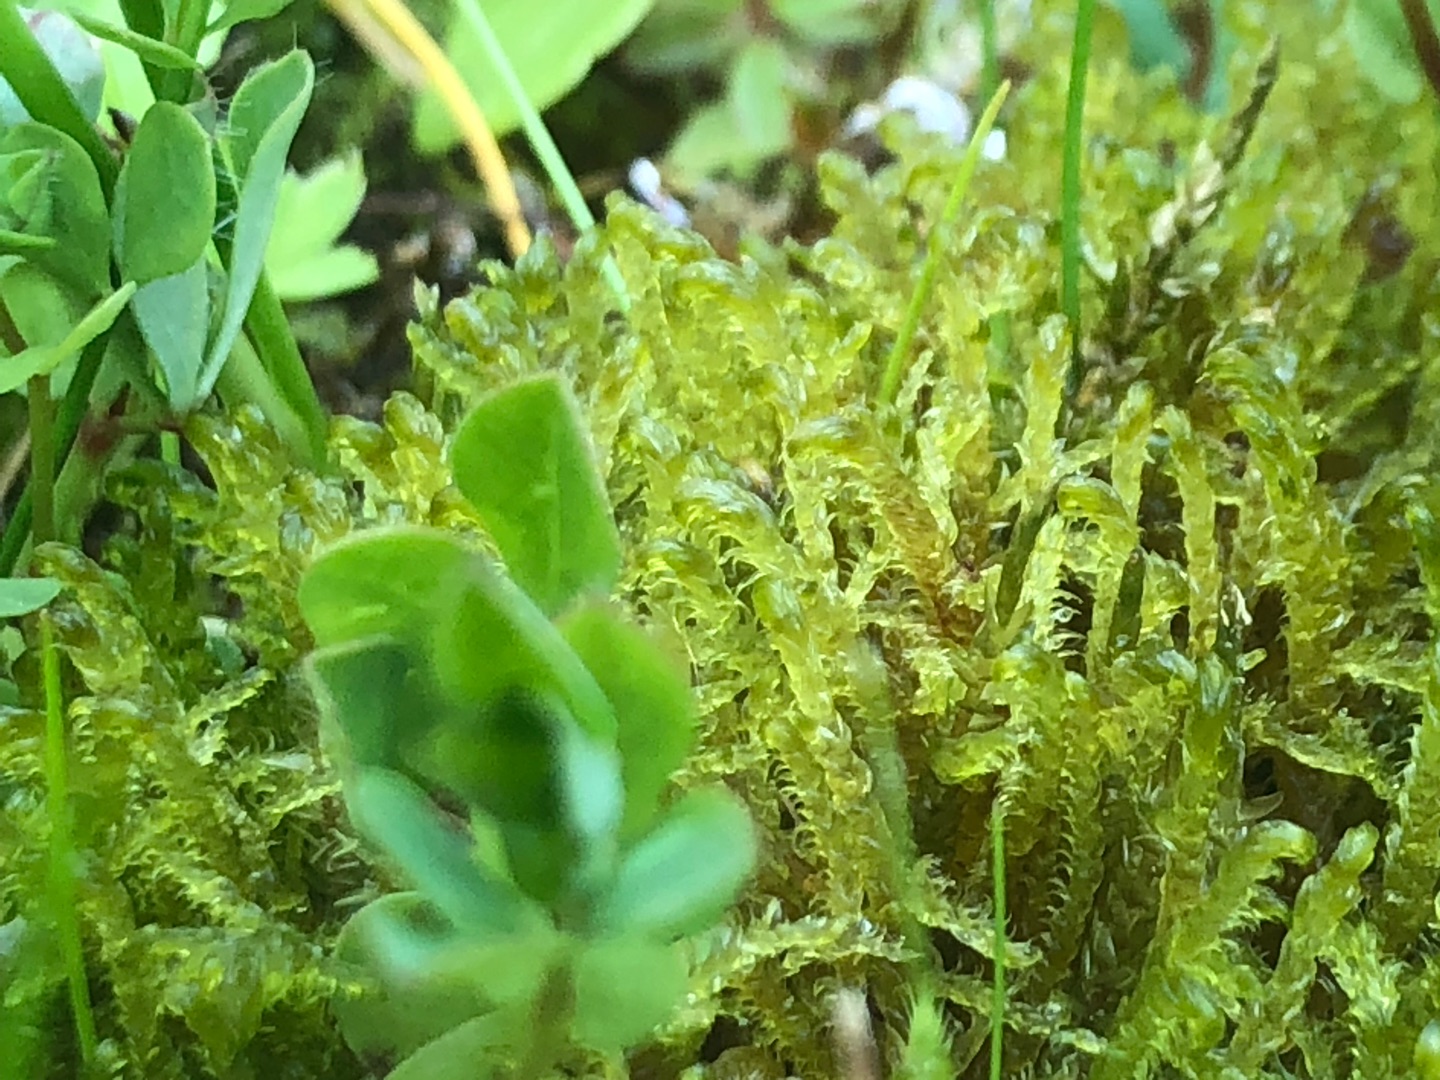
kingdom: Plantae
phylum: Bryophyta
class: Bryopsida
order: Hypnales
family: Scorpidiaceae
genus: Hamatocaulis
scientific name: Hamatocaulis vernicosus
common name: Blank seglmos
